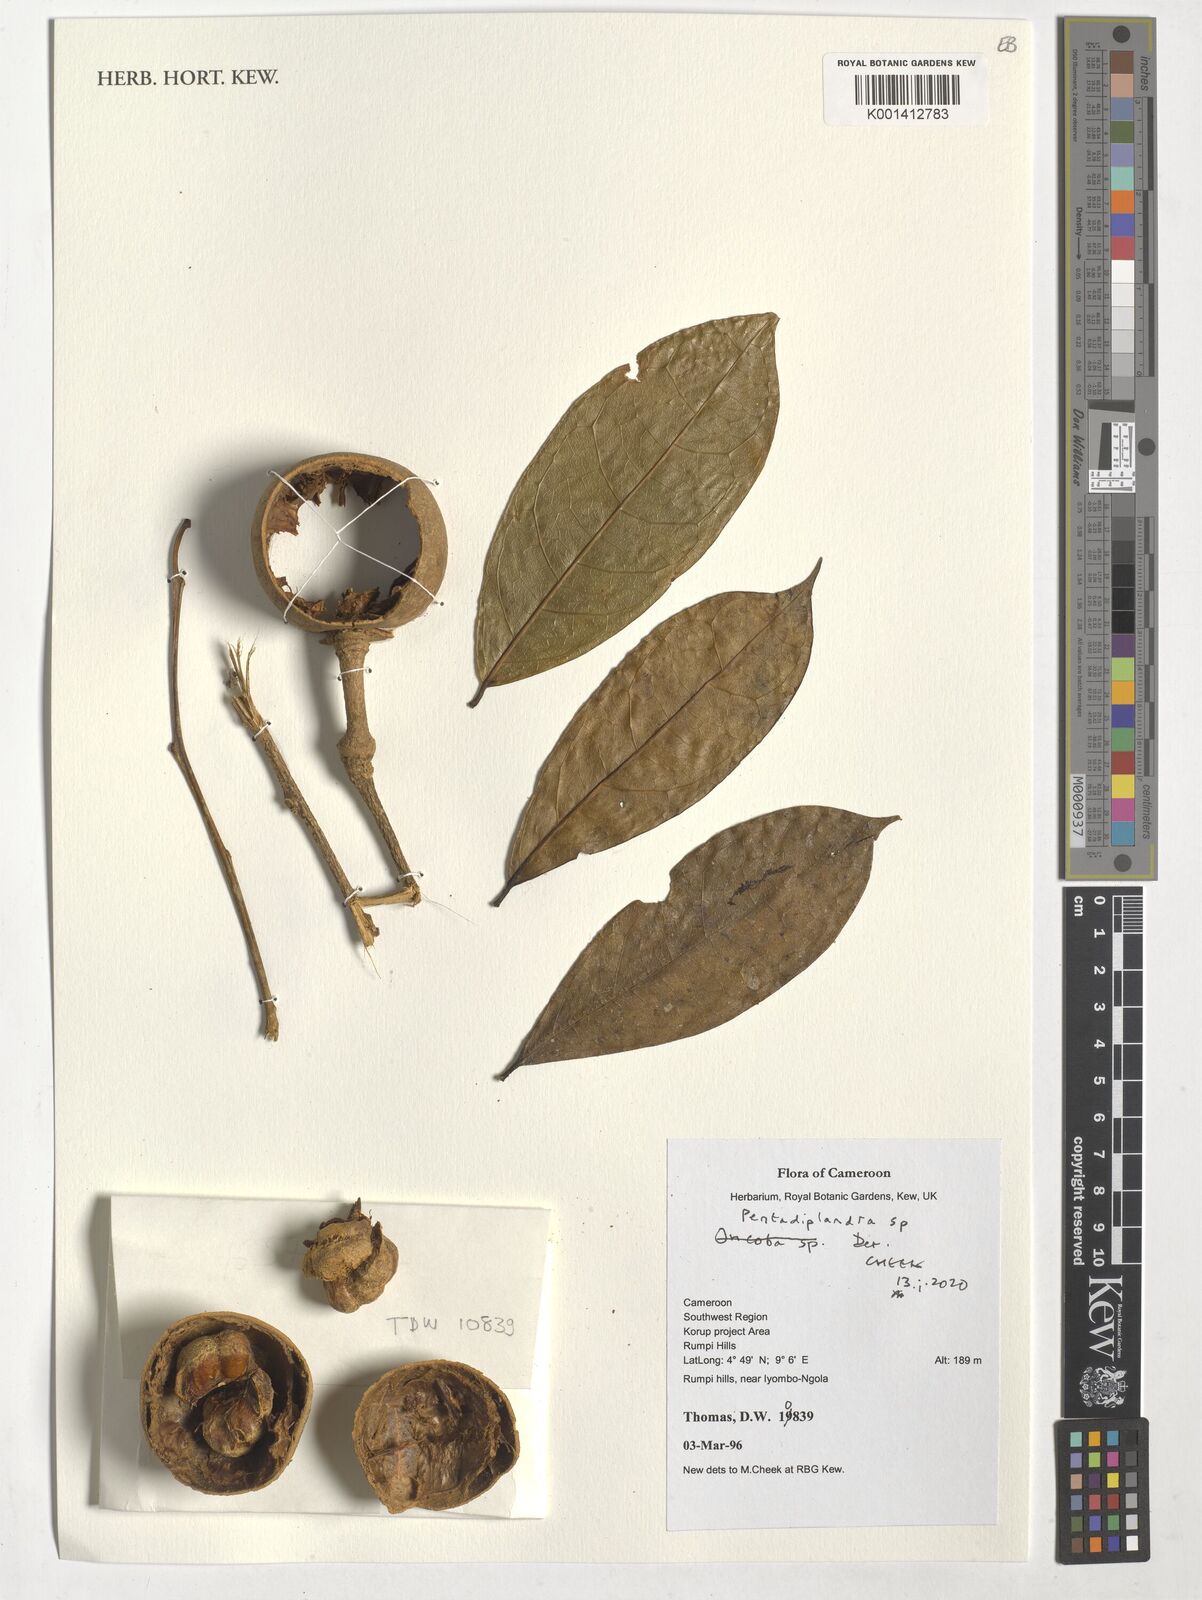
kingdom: Plantae
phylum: Tracheophyta
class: Magnoliopsida
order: Brassicales
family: Pentadiplandraceae
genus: Pentadiplandra
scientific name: Pentadiplandra
